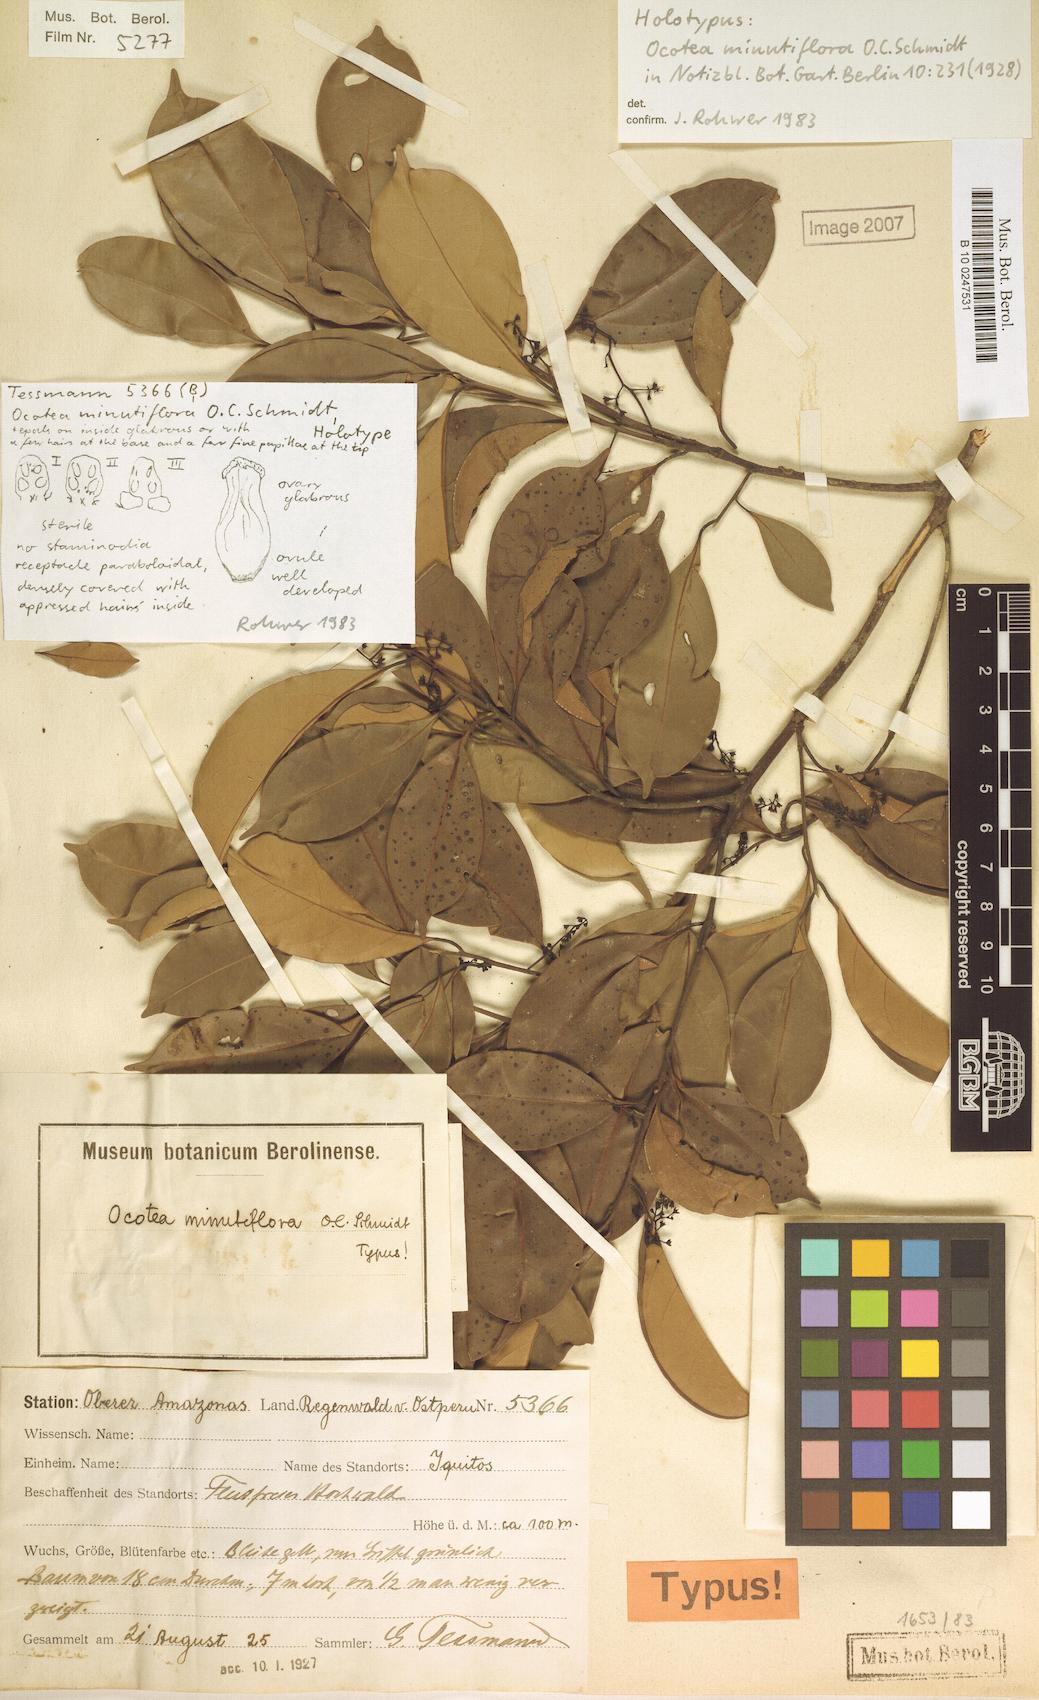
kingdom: Plantae
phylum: Tracheophyta
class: Magnoliopsida
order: Laurales
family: Lauraceae
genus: Ocotea
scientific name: Ocotea minutiflora
